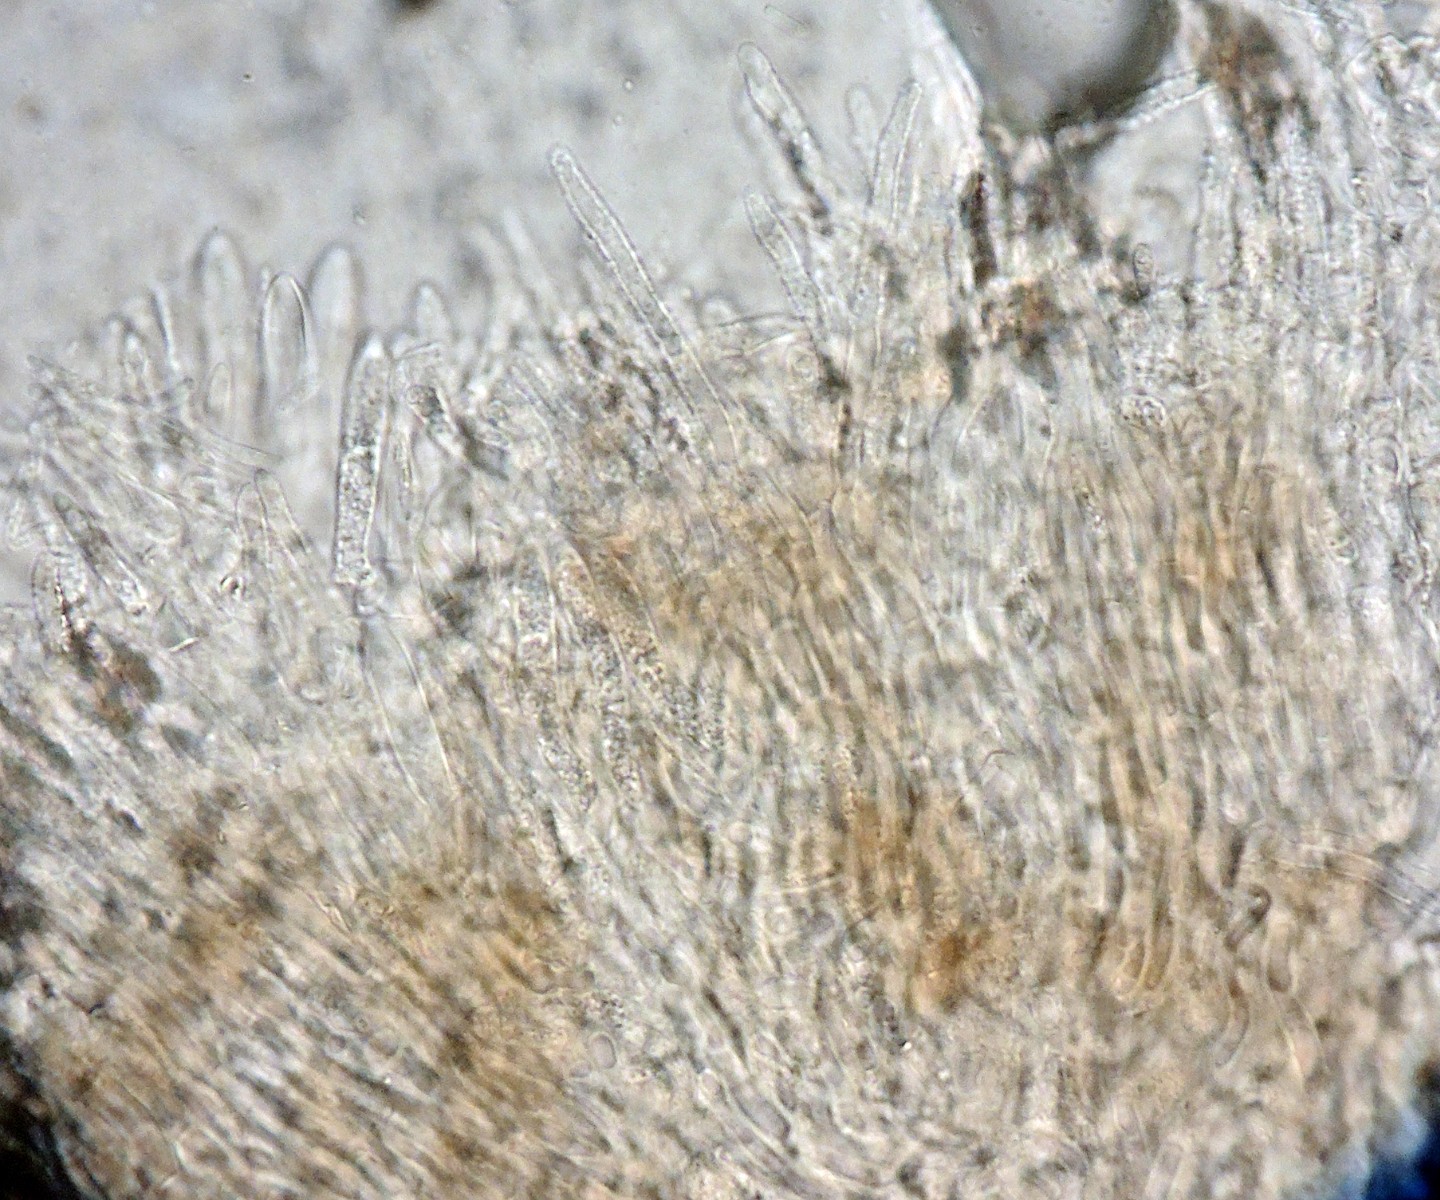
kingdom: Fungi
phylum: Ascomycota
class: Leotiomycetes
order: Helotiales
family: Lachnaceae
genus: Brunnipila
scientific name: Brunnipila dumorum
